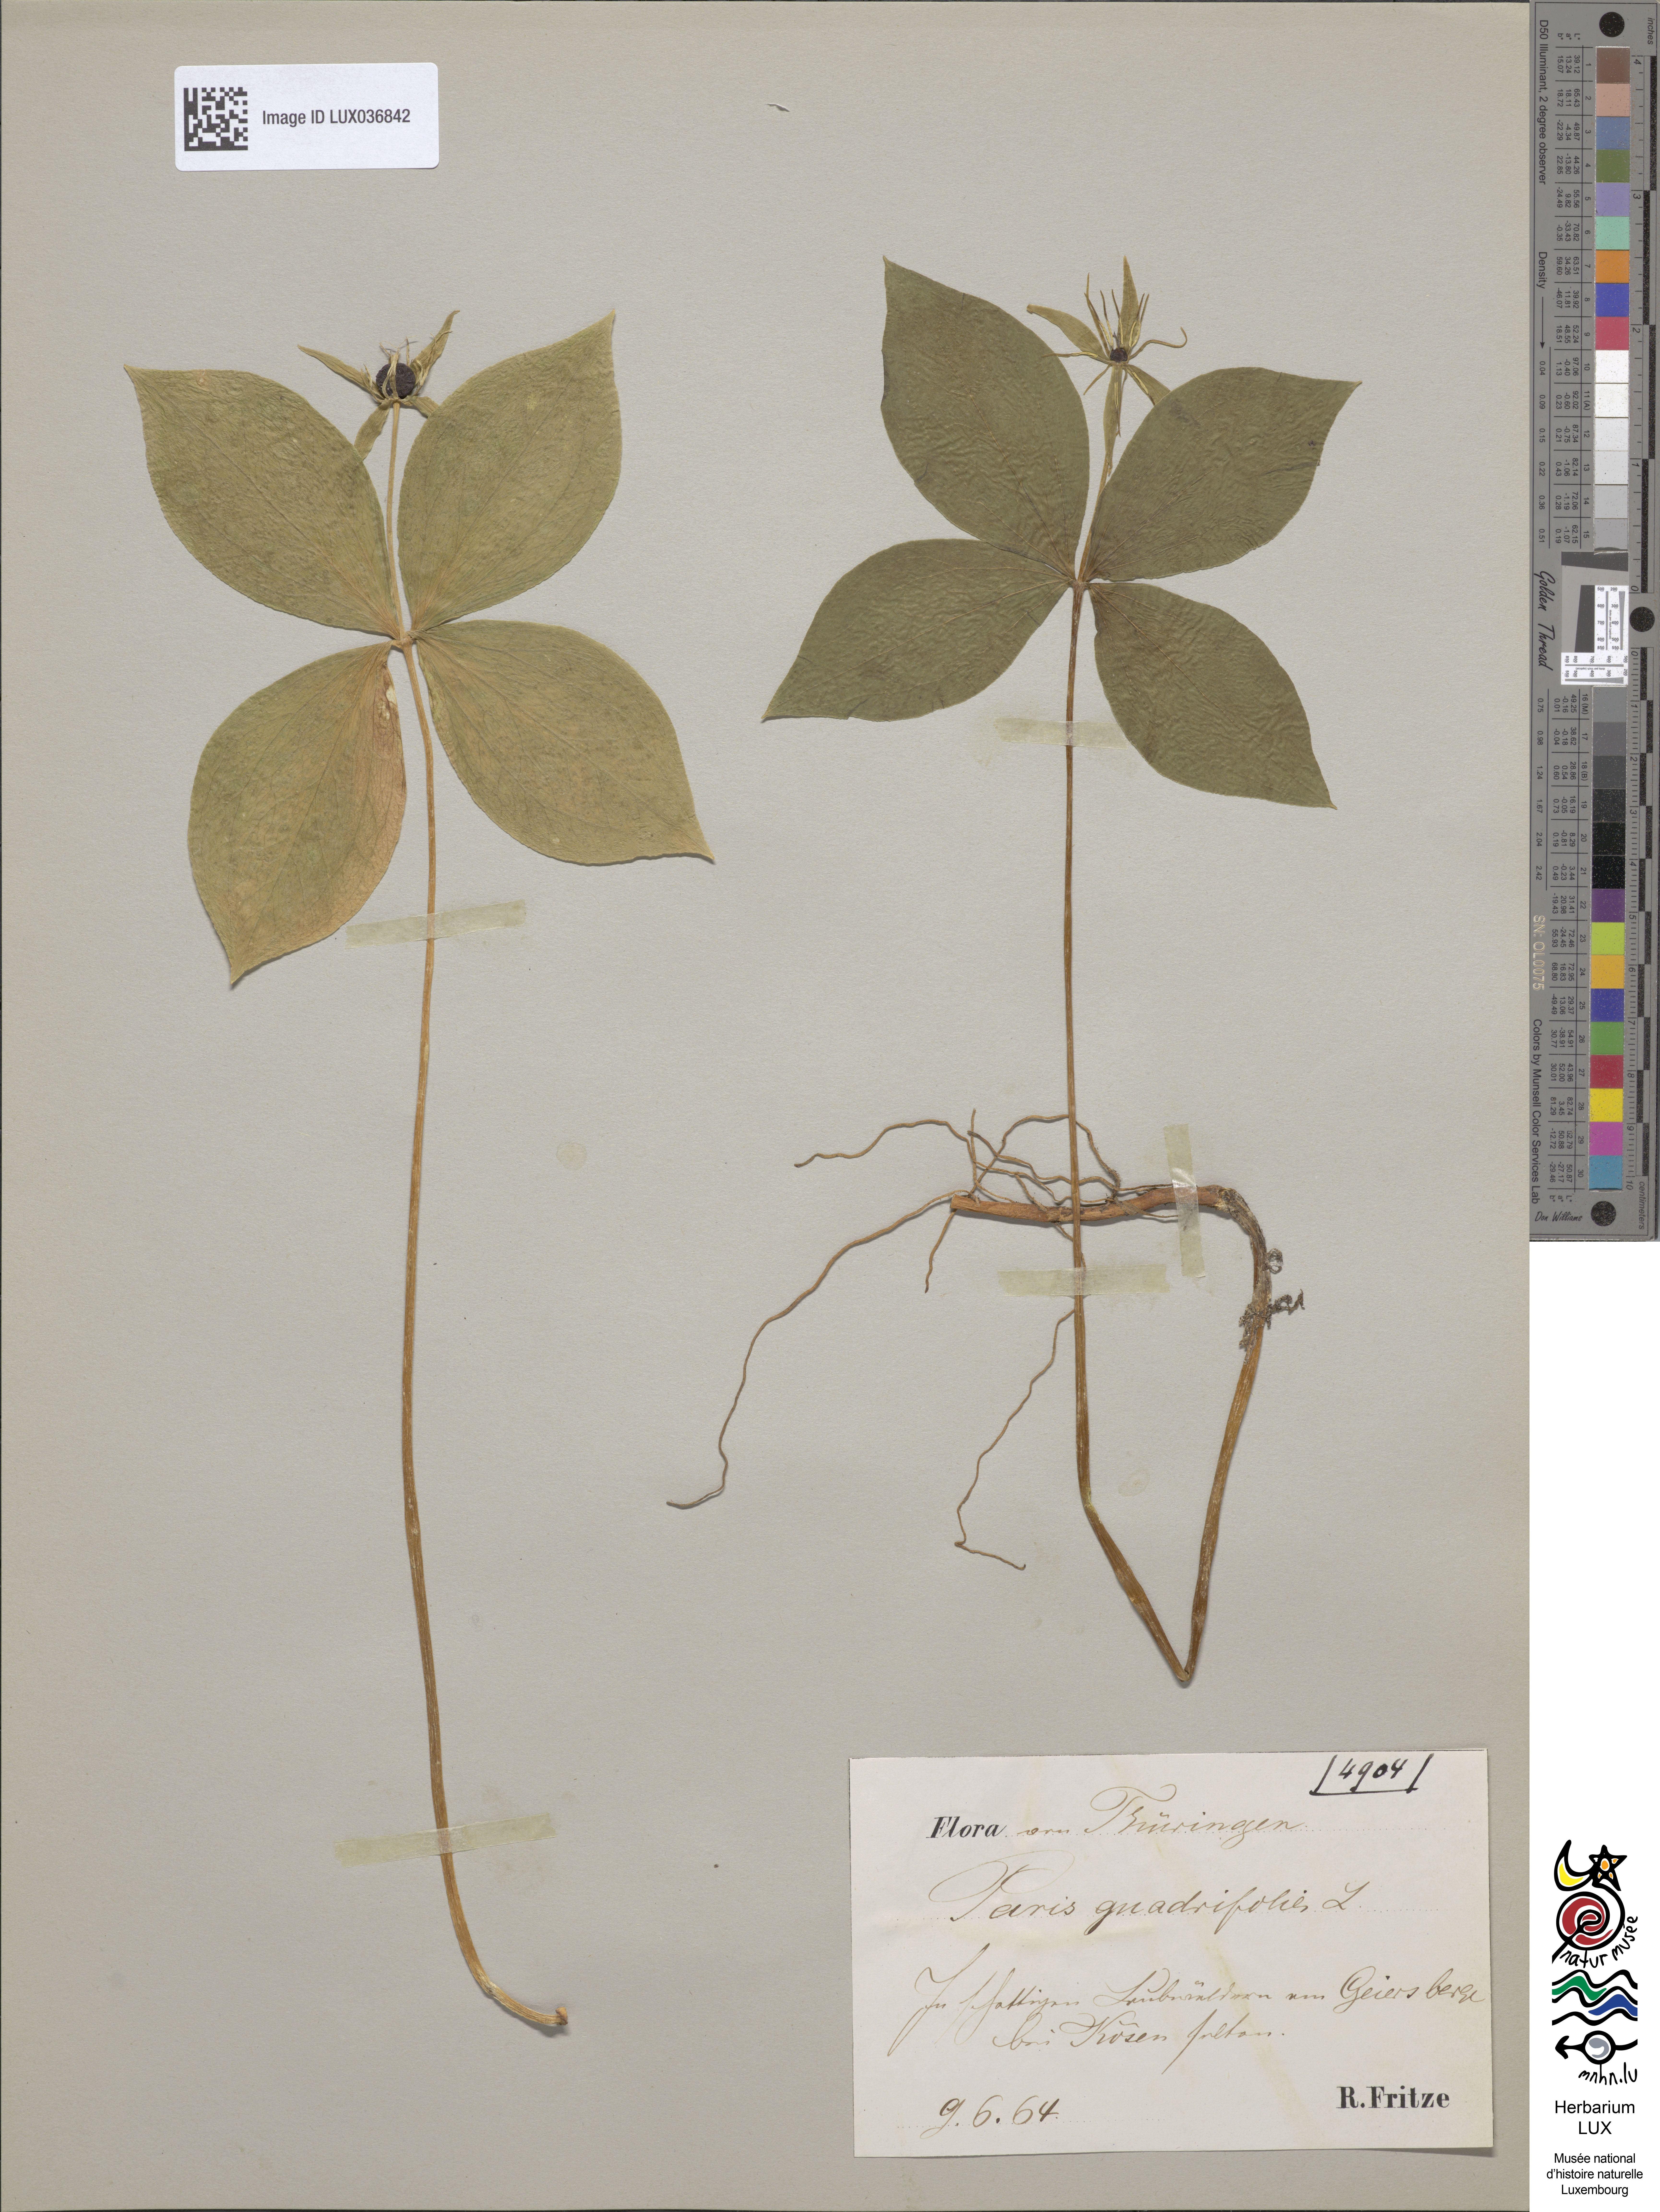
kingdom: Plantae
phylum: Tracheophyta
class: Liliopsida
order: Liliales
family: Melanthiaceae
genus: Paris
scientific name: Paris quadrifolia
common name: Herb-paris
